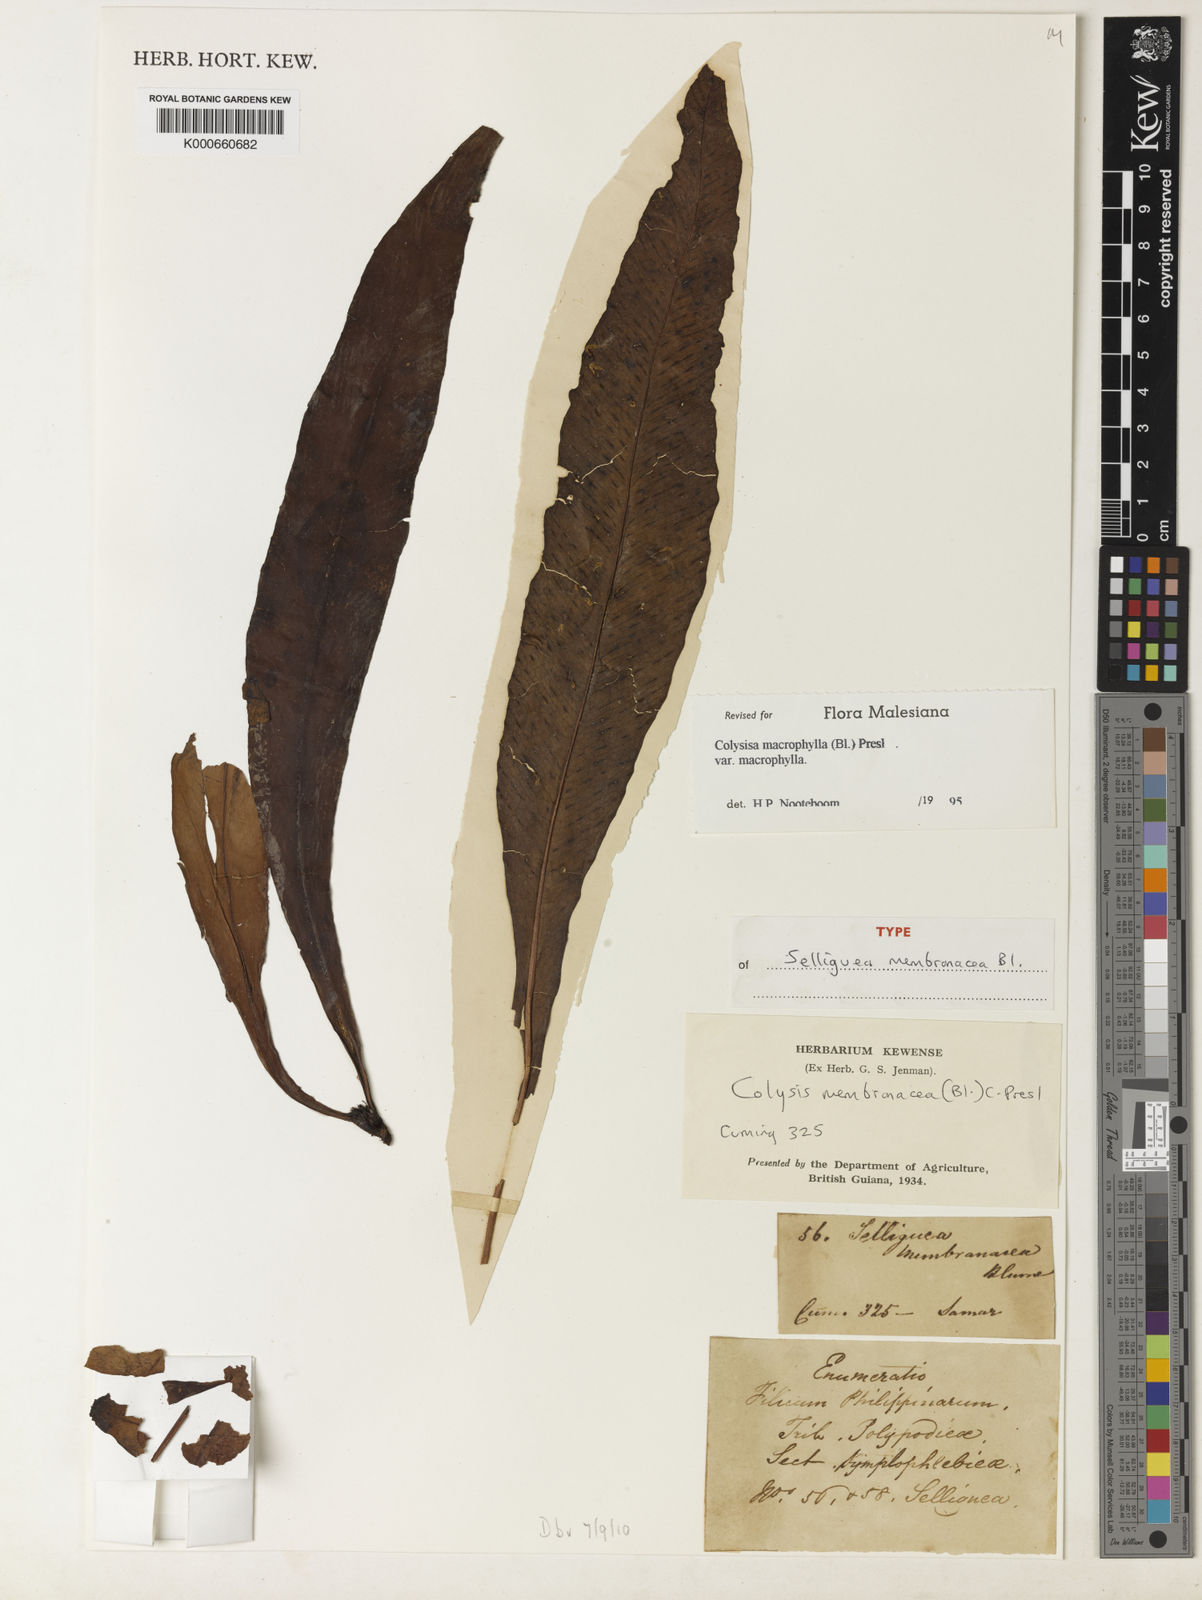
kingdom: Plantae
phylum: Tracheophyta
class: Polypodiopsida
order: Polypodiales
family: Polypodiaceae
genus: Leptochilus
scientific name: Leptochilus macrophyllus
